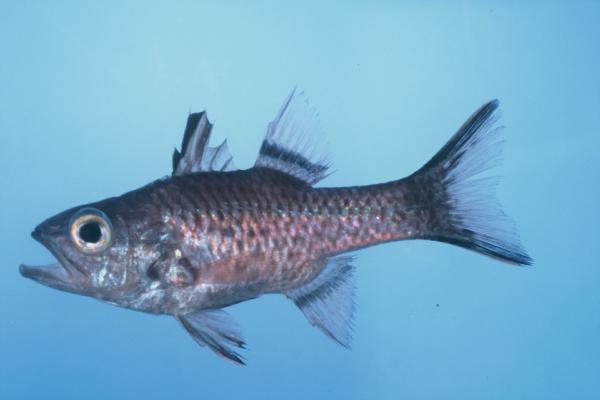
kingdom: Animalia
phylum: Chordata
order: Perciformes
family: Apogonidae
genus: Pristiapogon
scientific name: Pristiapogon taeniopterus
